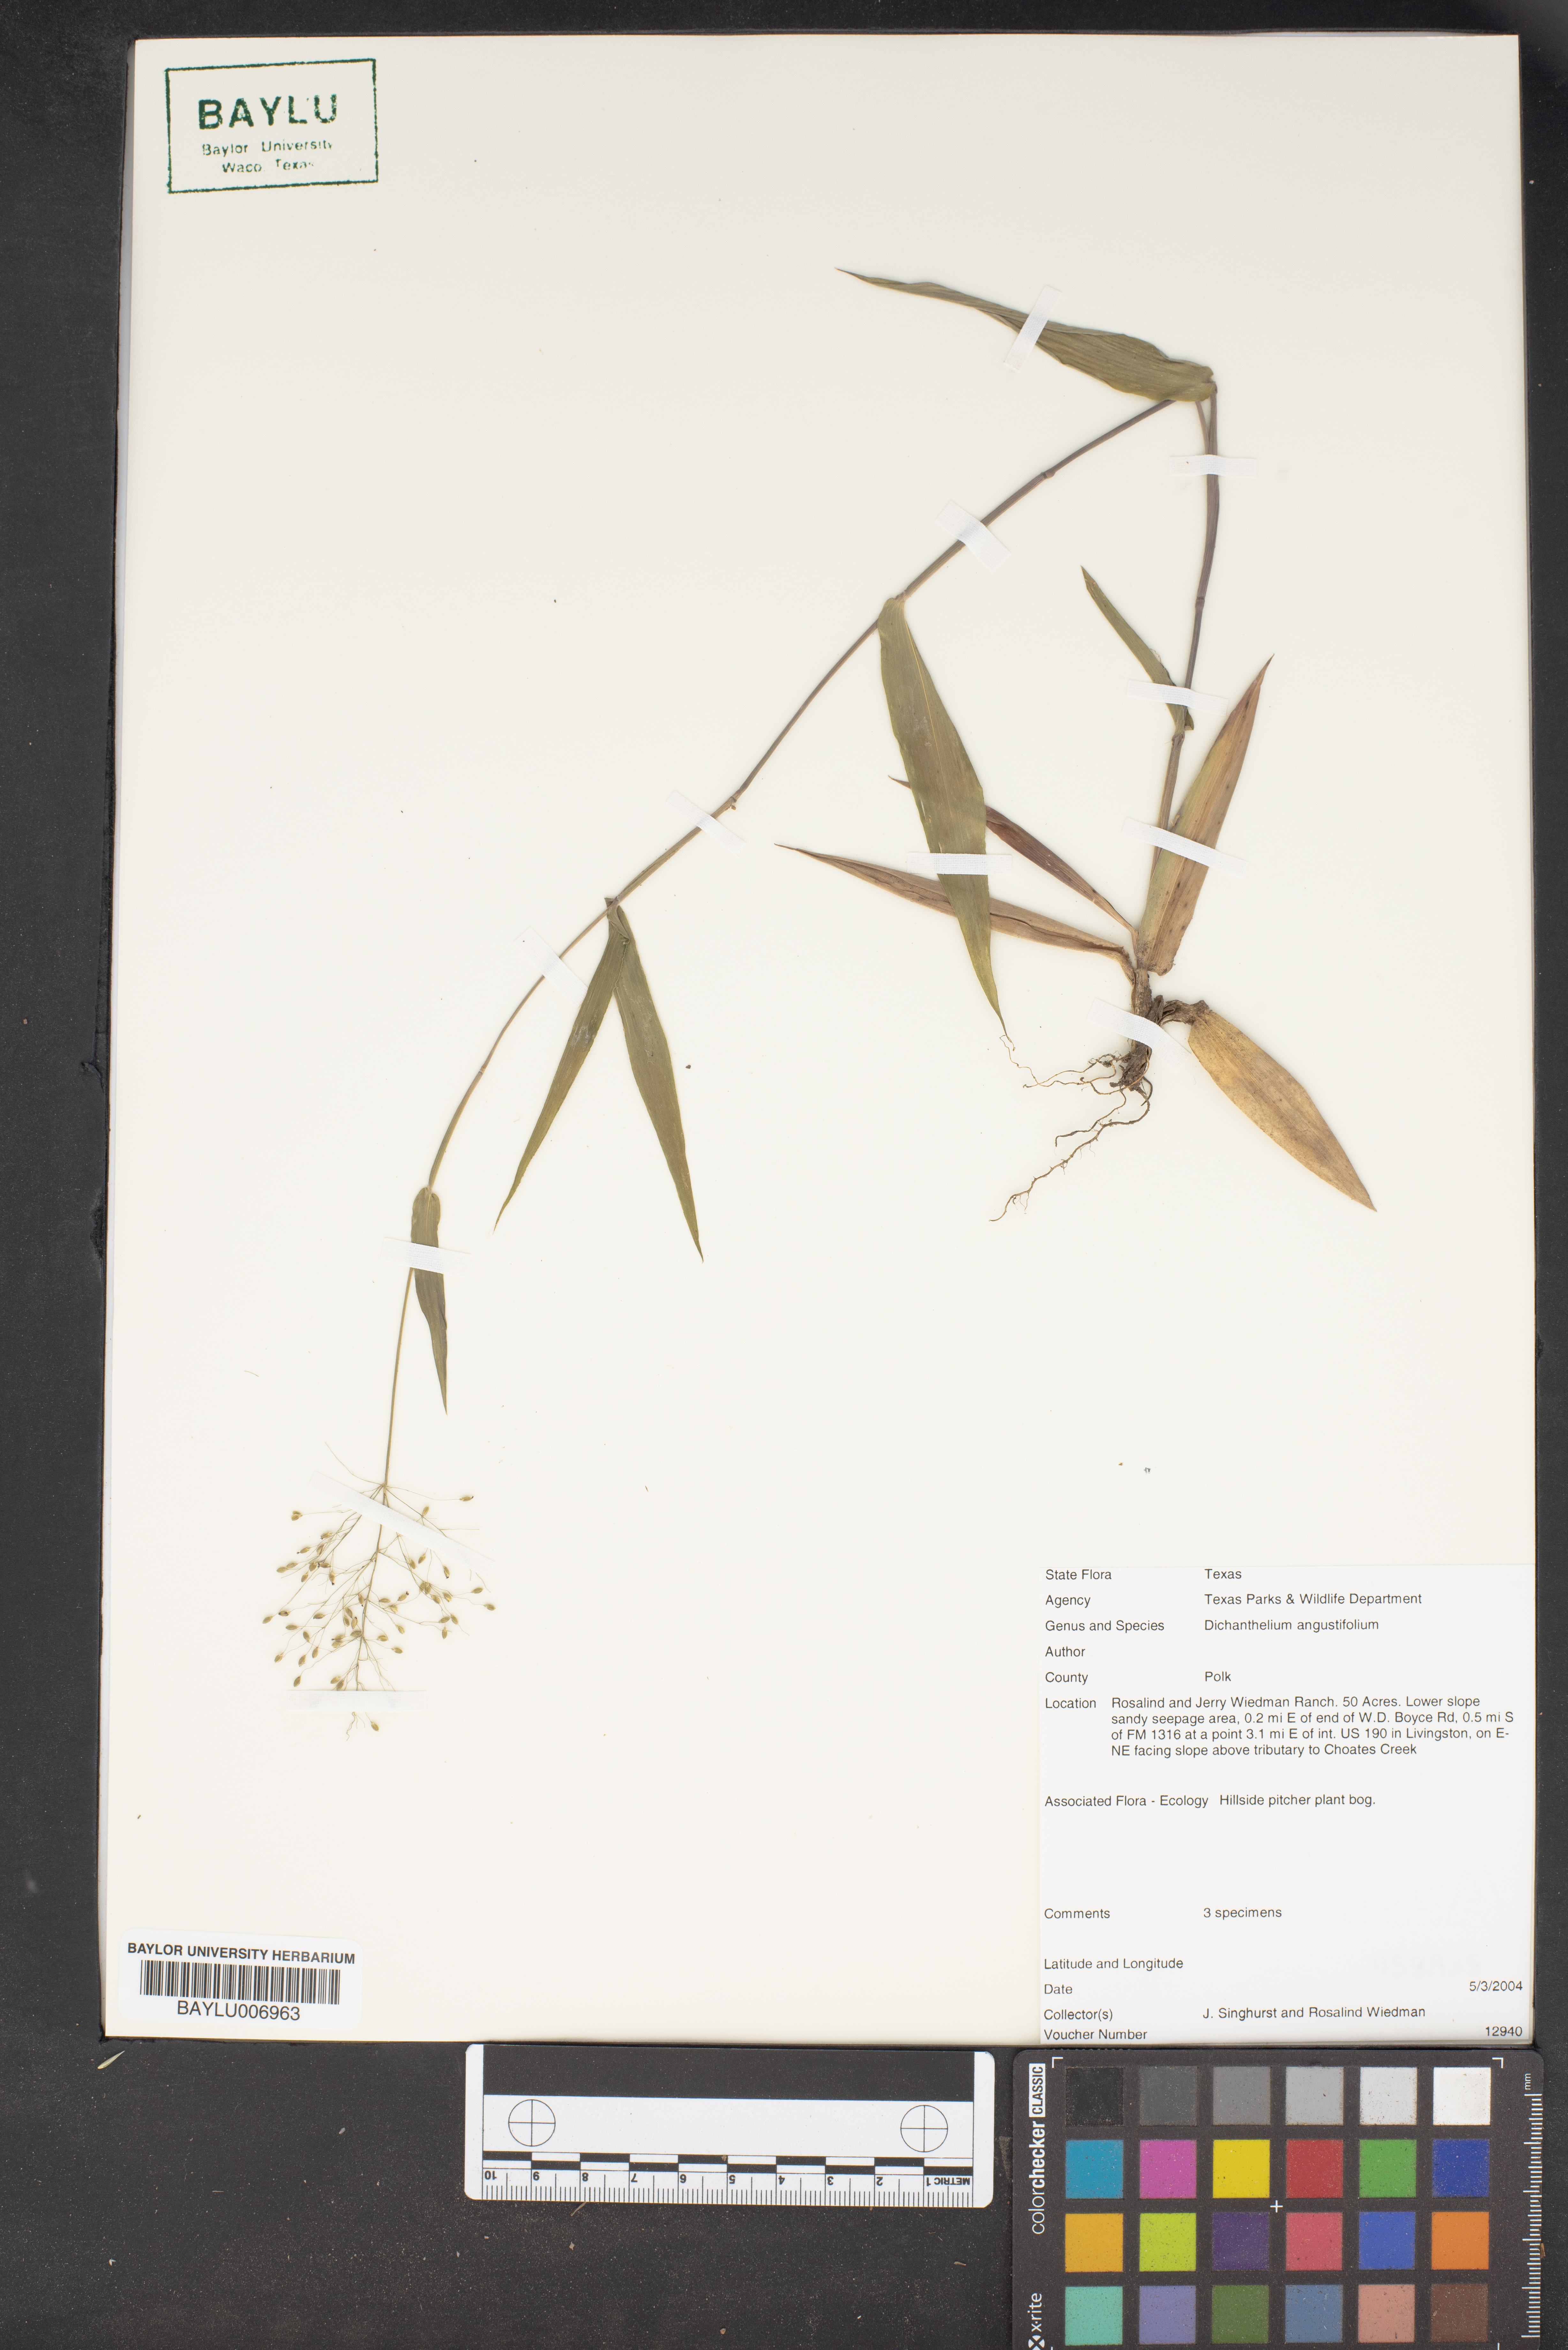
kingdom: Plantae
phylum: Tracheophyta
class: Liliopsida
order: Poales
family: Poaceae
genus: Dichanthelium
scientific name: Dichanthelium angustifolium
